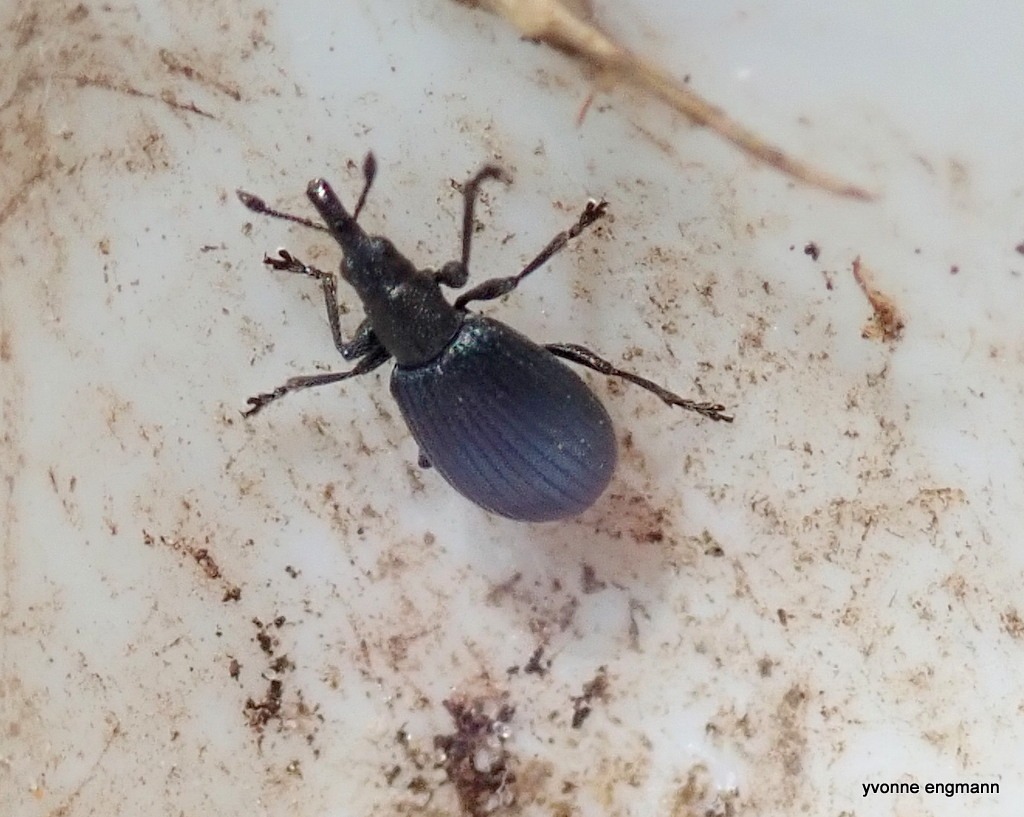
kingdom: Animalia
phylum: Arthropoda
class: Insecta
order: Coleoptera
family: Brentidae
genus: Perapion
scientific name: Perapion hydrolapathi
